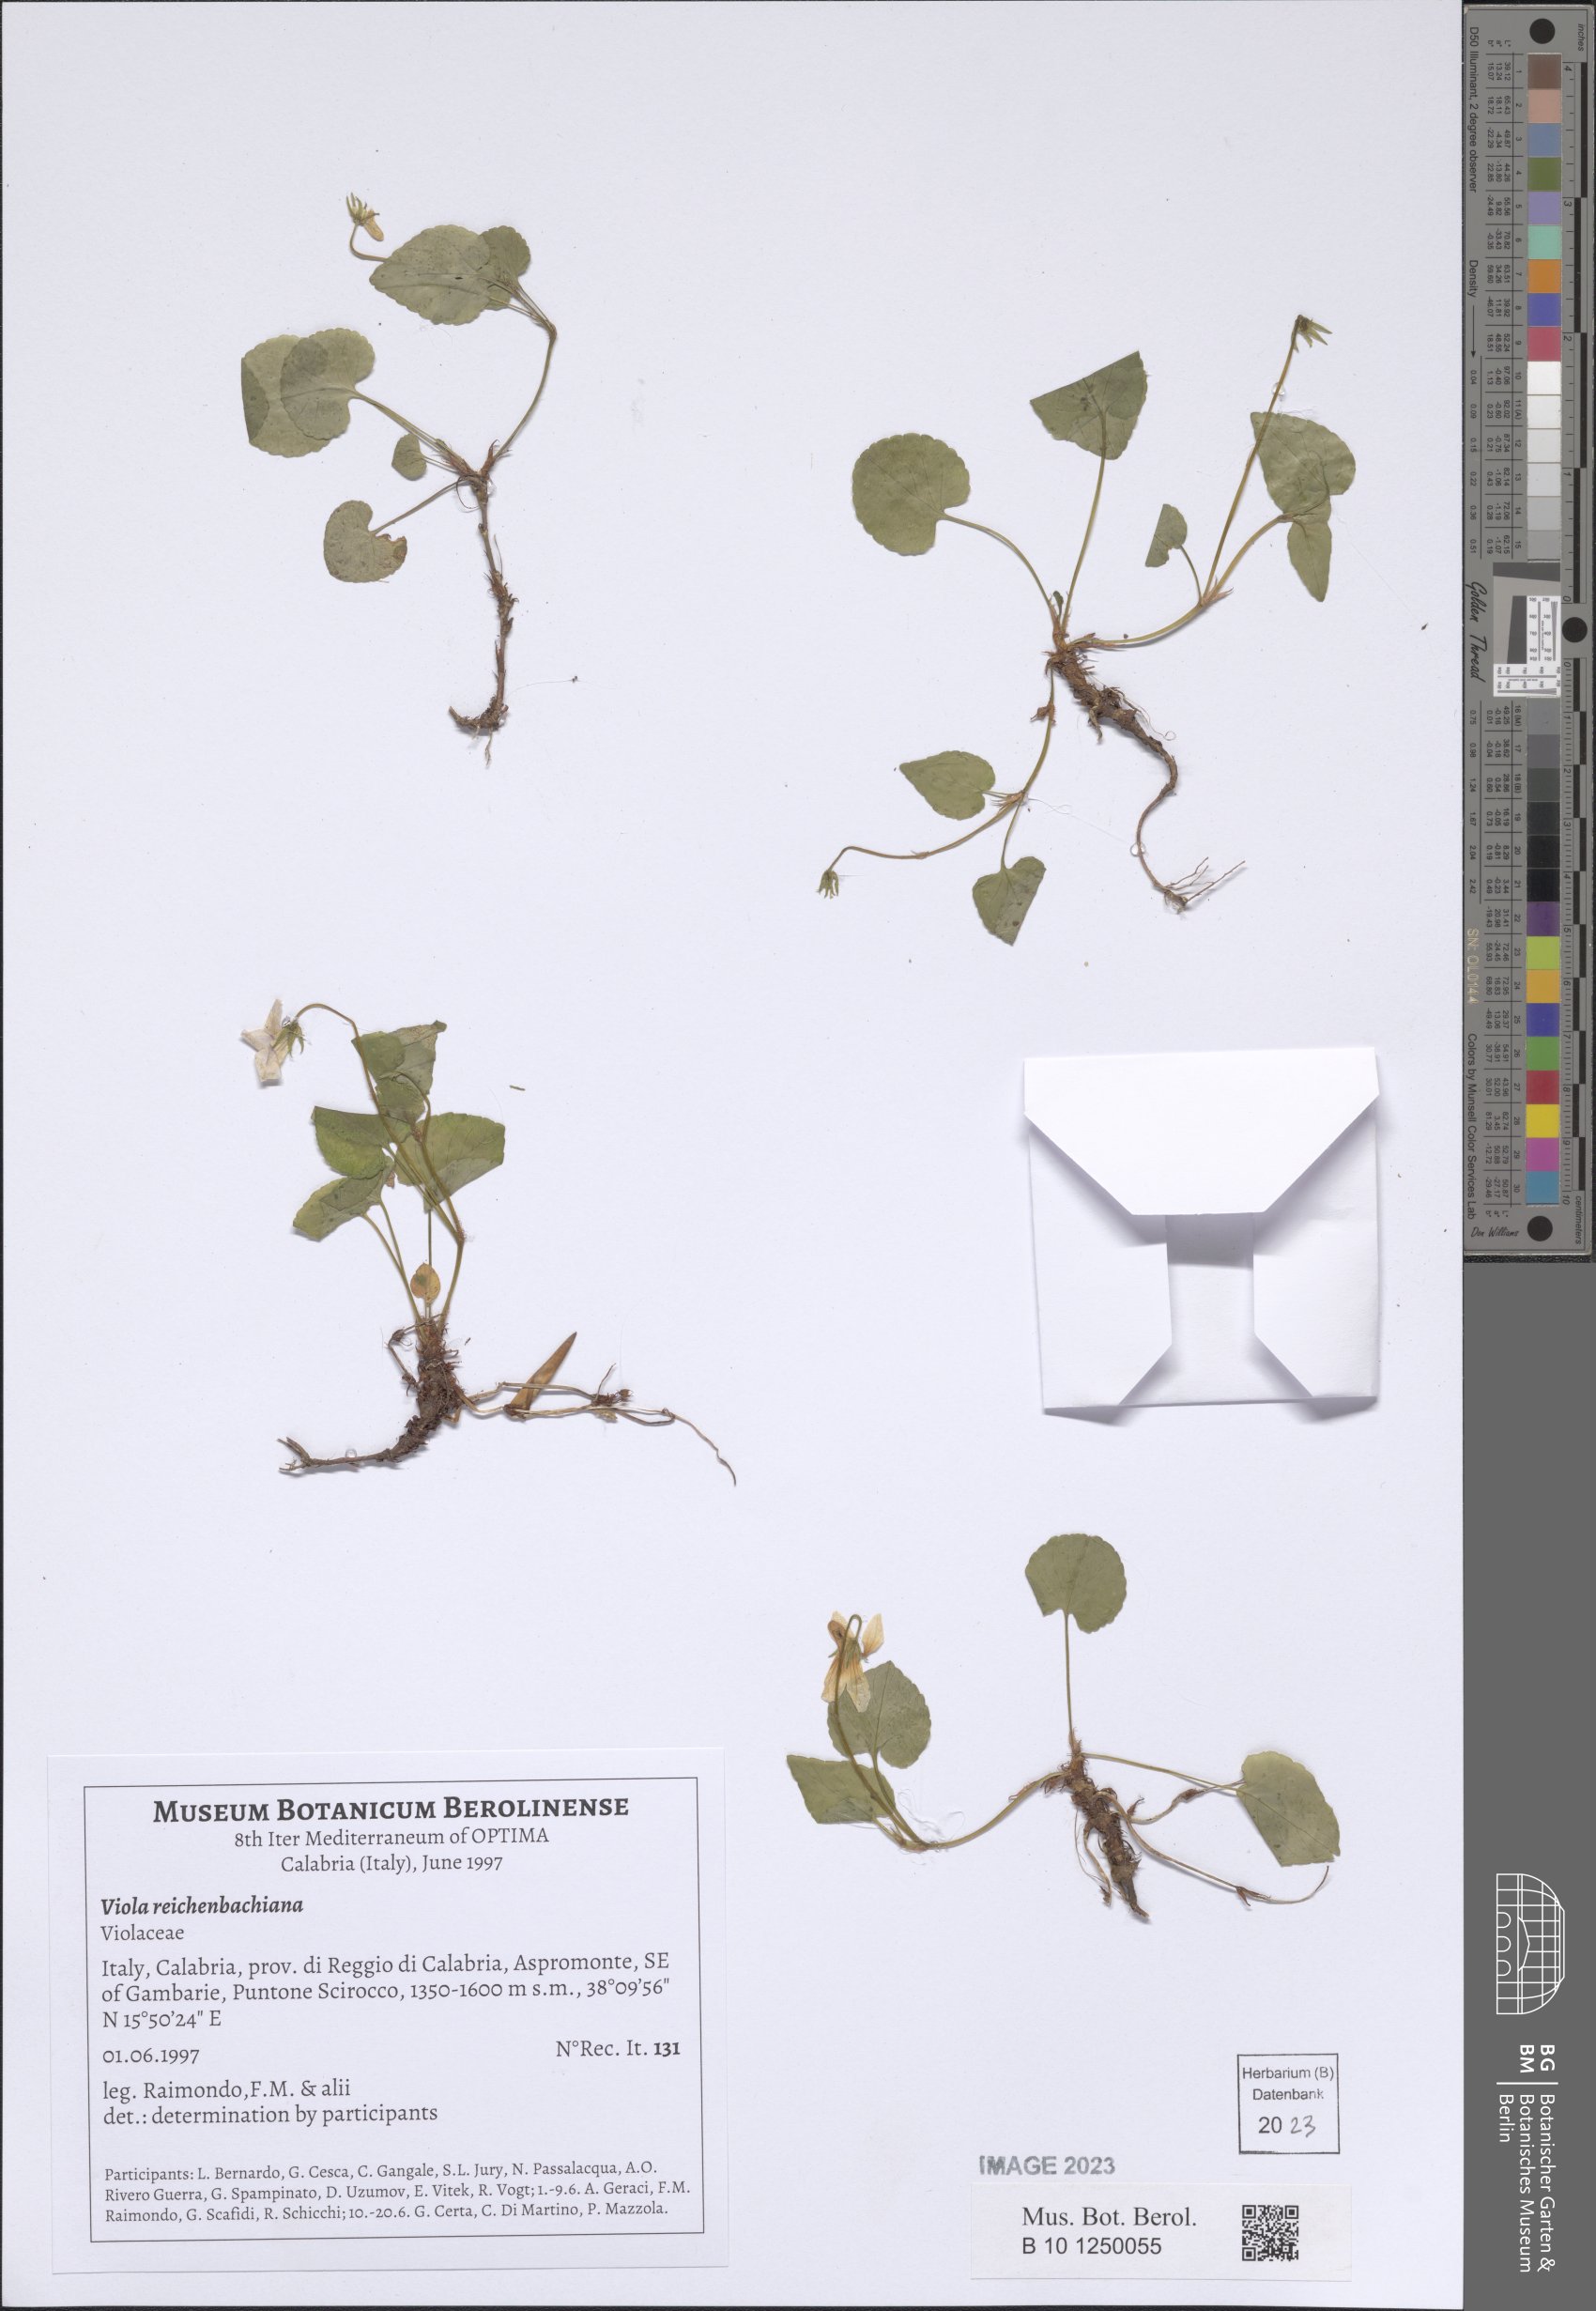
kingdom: Plantae
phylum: Tracheophyta
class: Magnoliopsida
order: Malpighiales
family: Violaceae
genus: Viola
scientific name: Viola reichenbachiana
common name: Early dog-violet
